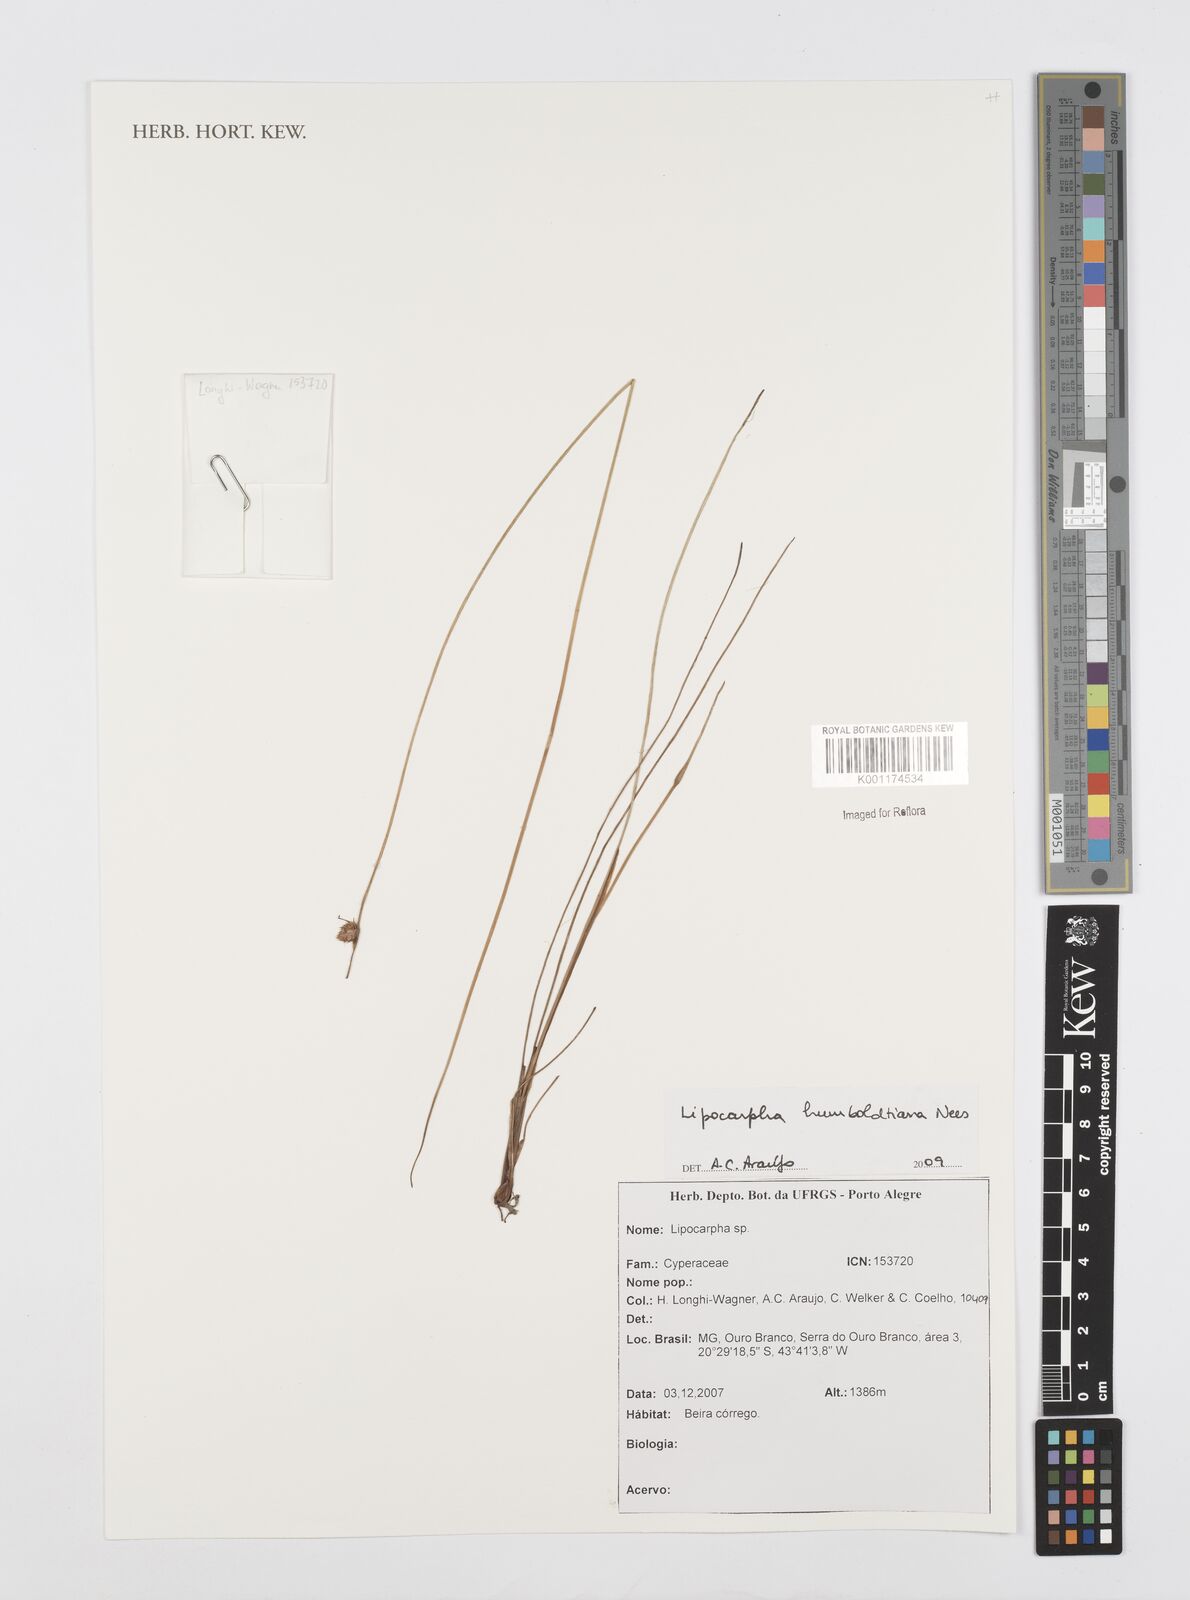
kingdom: Plantae
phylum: Tracheophyta
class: Liliopsida
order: Poales
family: Cyperaceae
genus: Cyperus
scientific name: Cyperus lanceolatus
